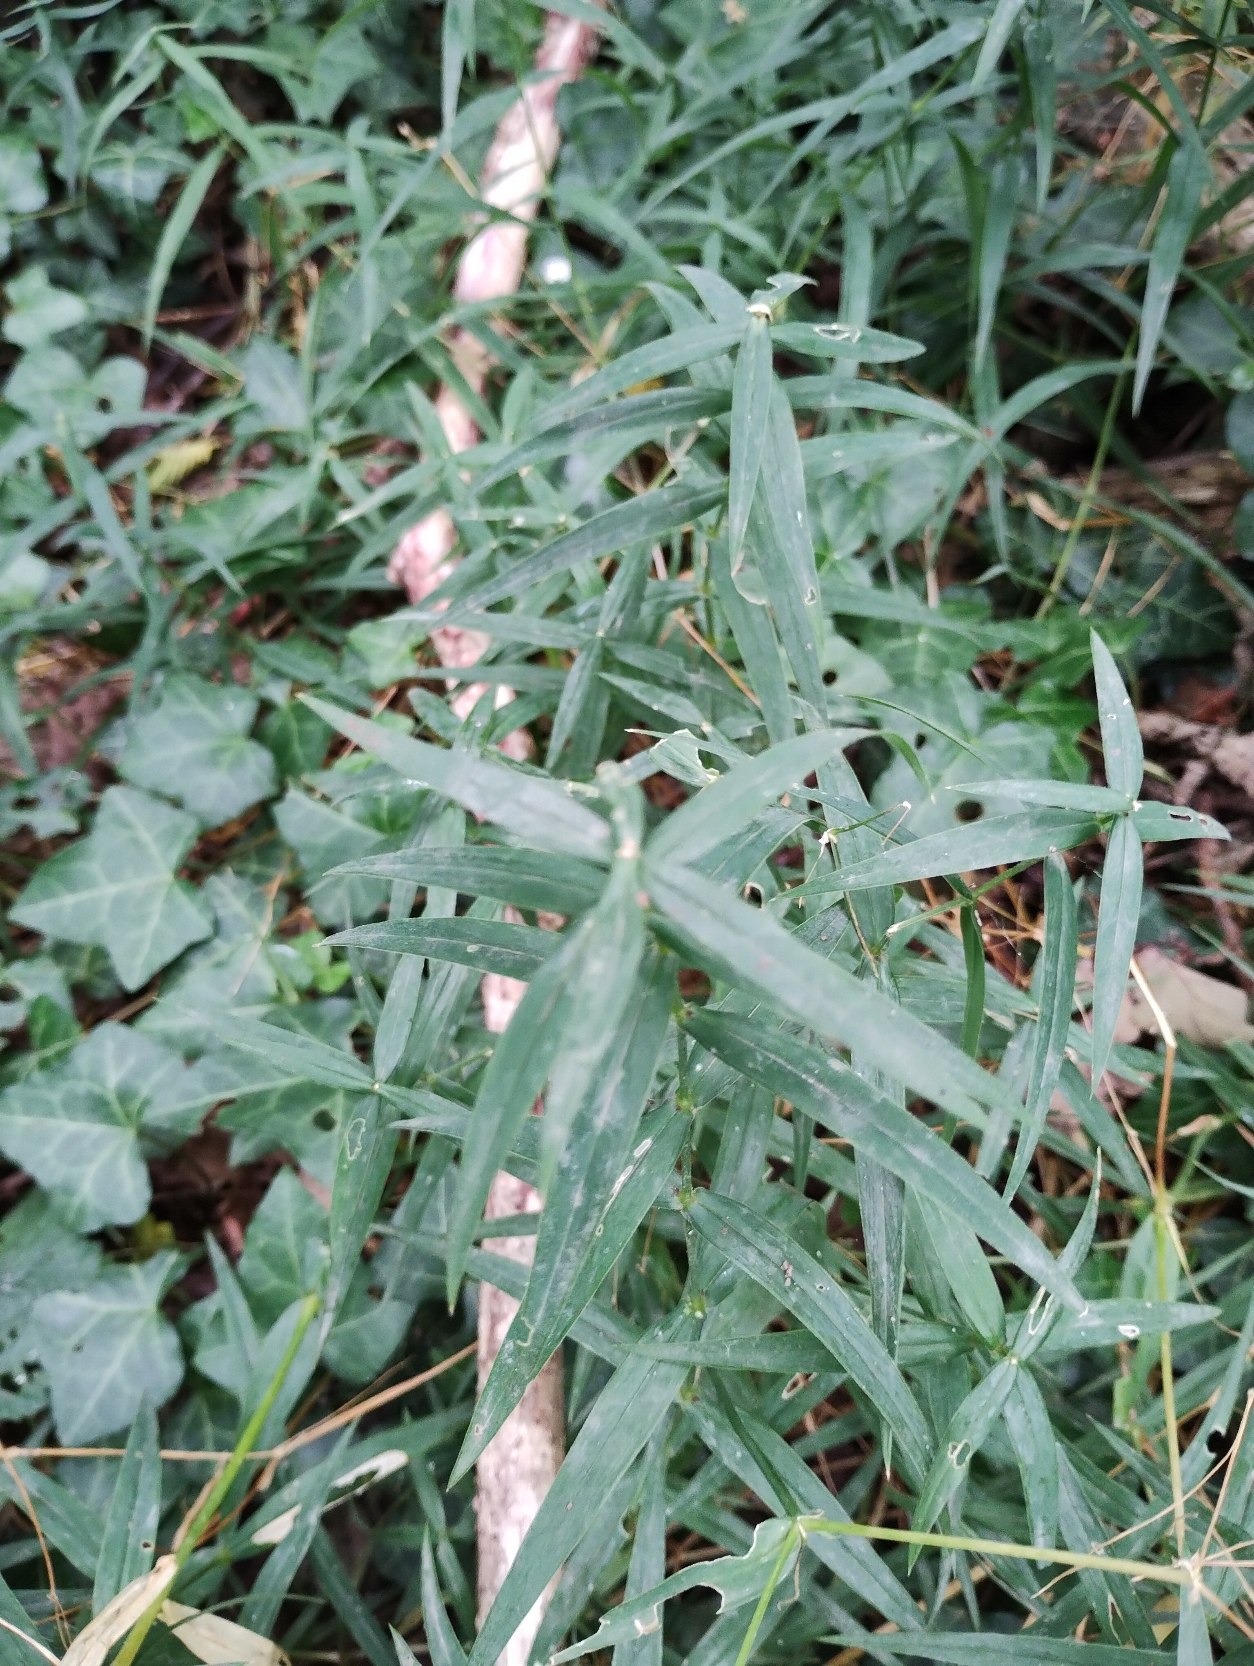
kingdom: Plantae
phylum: Tracheophyta
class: Magnoliopsida
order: Caryophyllales
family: Caryophyllaceae
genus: Rabelera
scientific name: Rabelera holostea
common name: Stor fladstjerne
